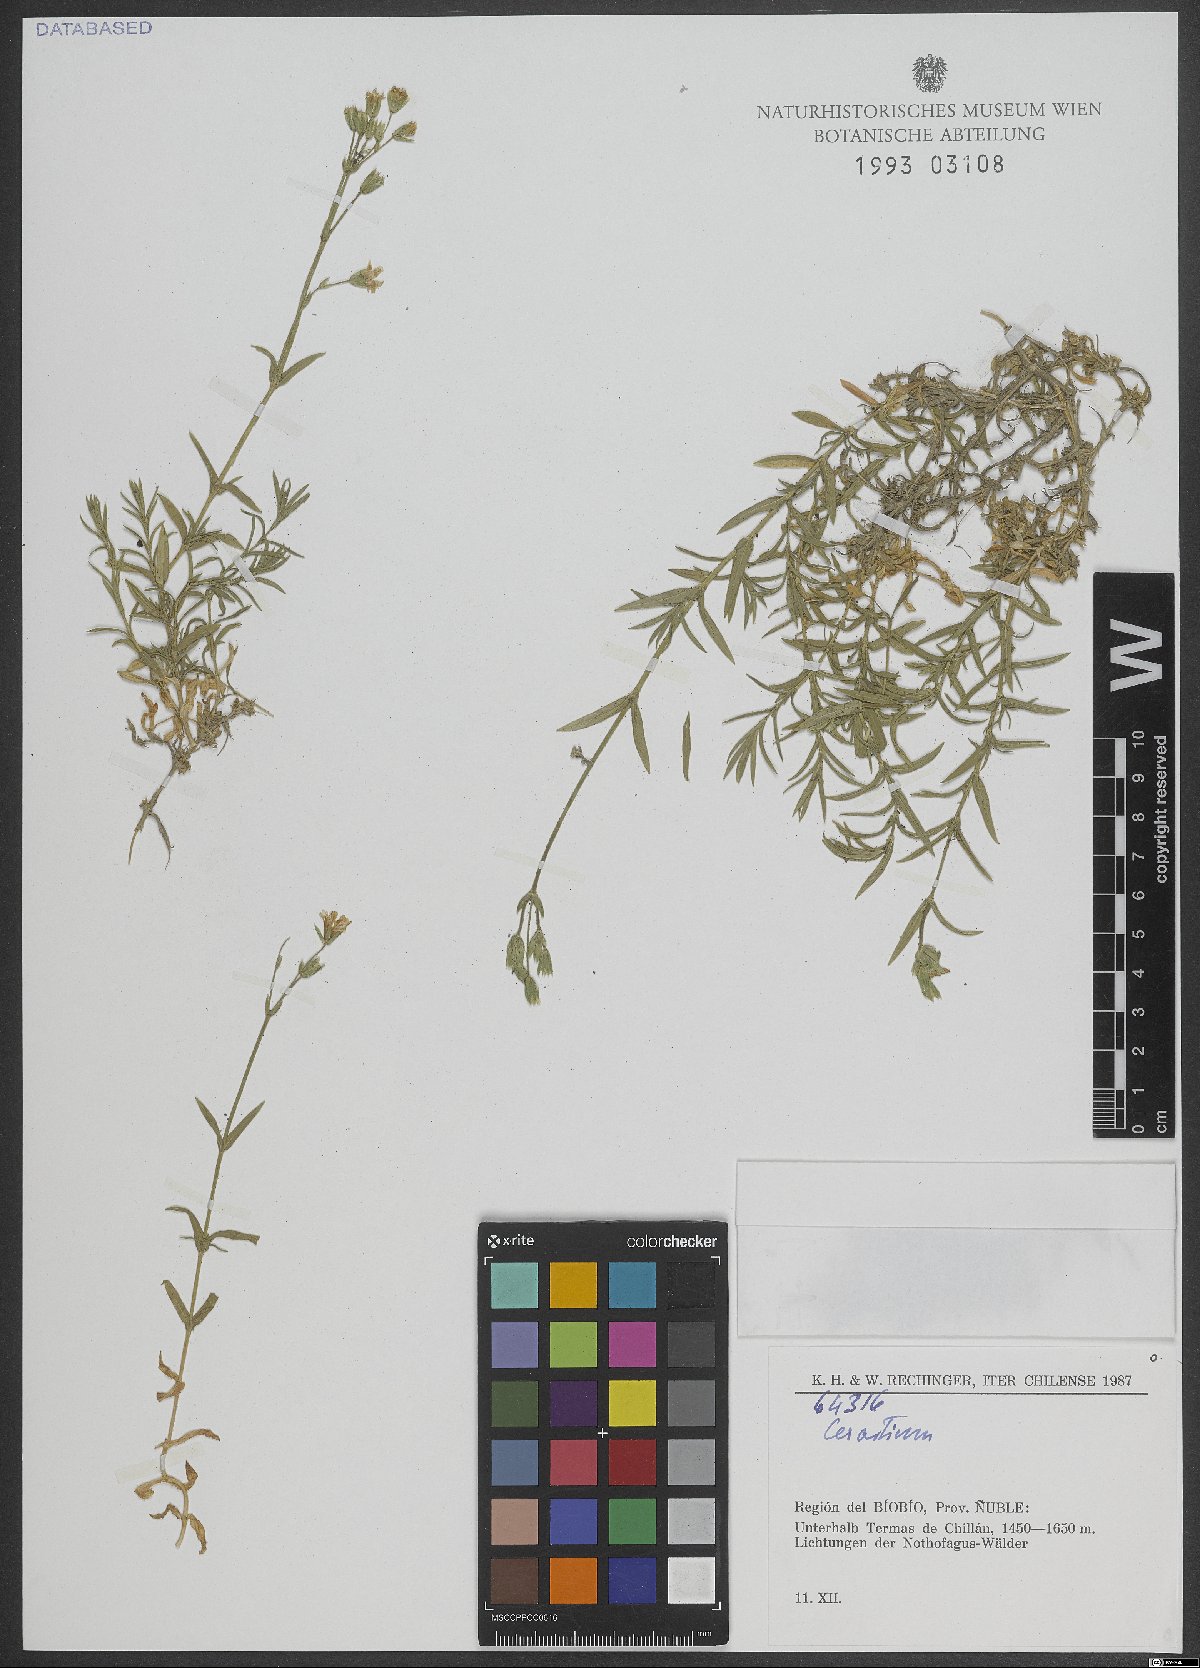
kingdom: Plantae
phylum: Tracheophyta
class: Magnoliopsida
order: Caryophyllales
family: Caryophyllaceae
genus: Cerastium
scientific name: Cerastium
